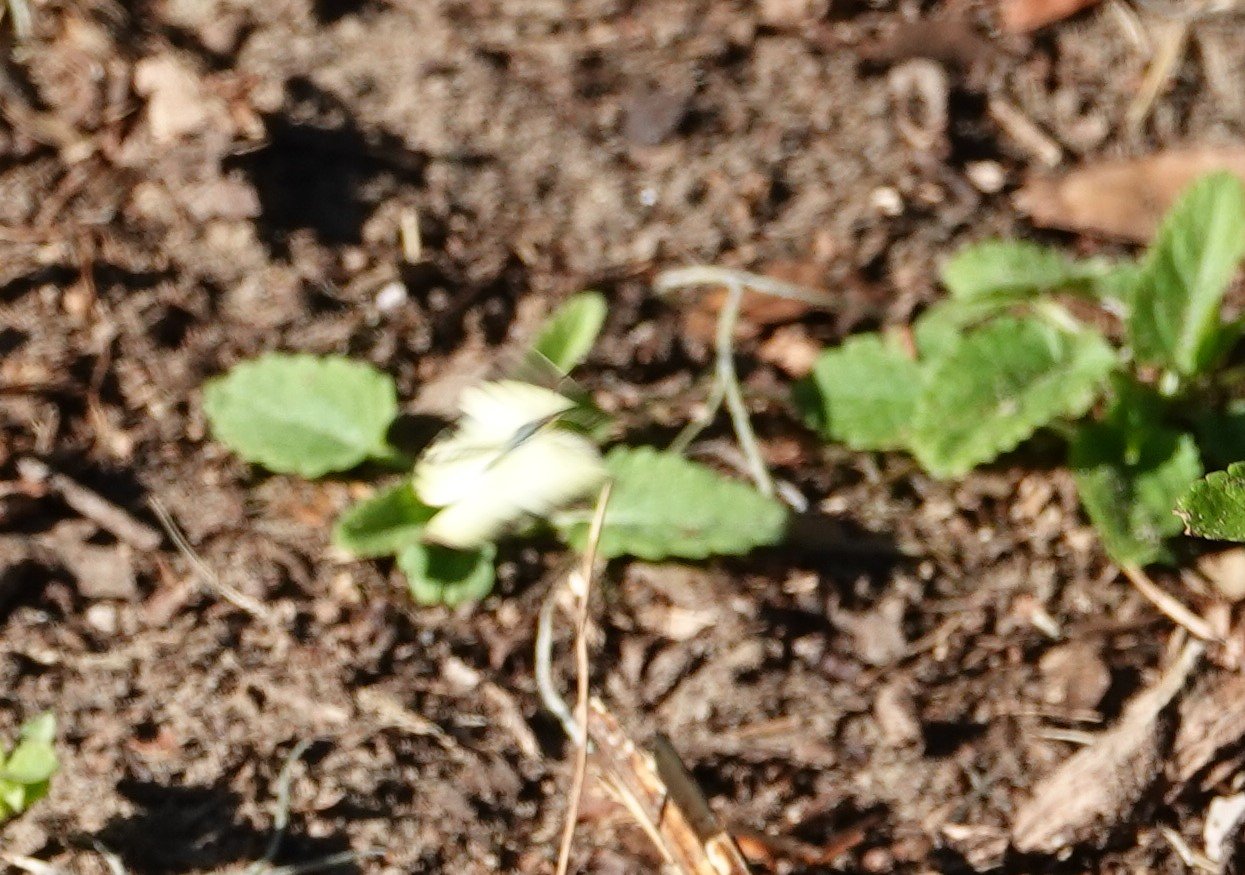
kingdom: Animalia
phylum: Arthropoda
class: Insecta
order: Lepidoptera
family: Pieridae
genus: Pyrisitia
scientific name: Pyrisitia lisa
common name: Little Yellow
